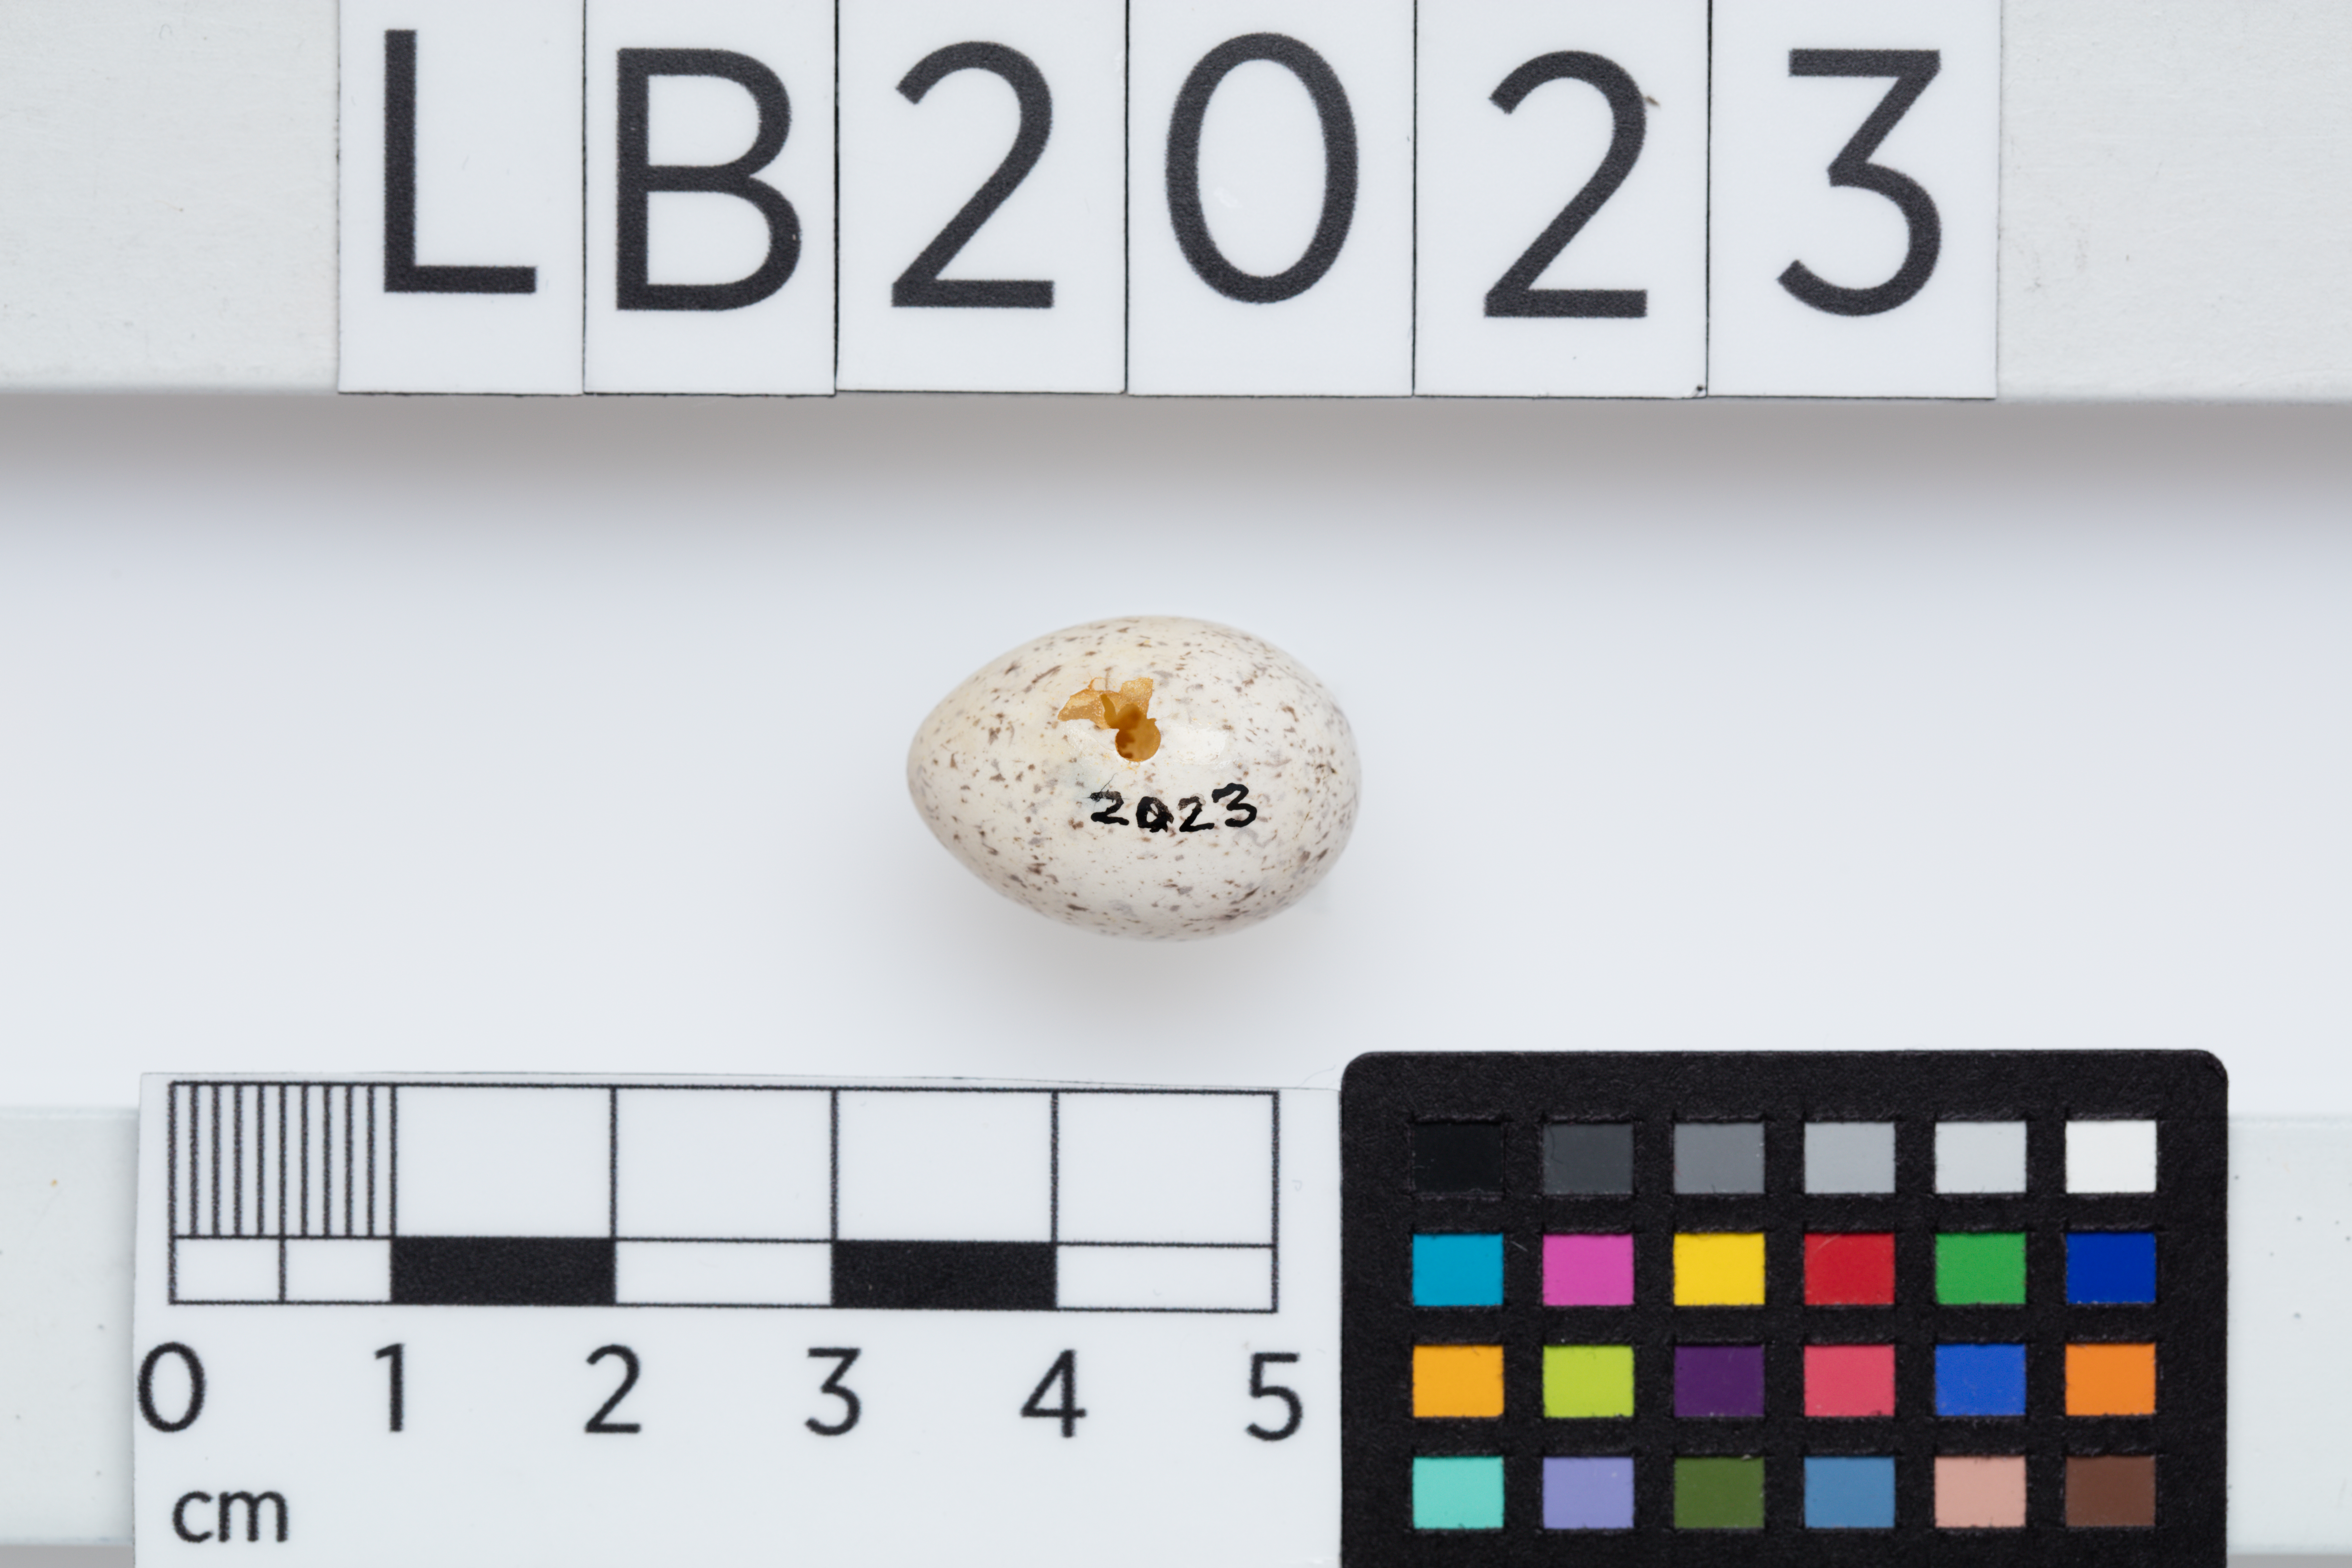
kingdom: Animalia
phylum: Chordata
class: Aves
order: Passeriformes
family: Acanthizidae
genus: Mohoua
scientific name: Mohoua albicilla
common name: Whitehead
